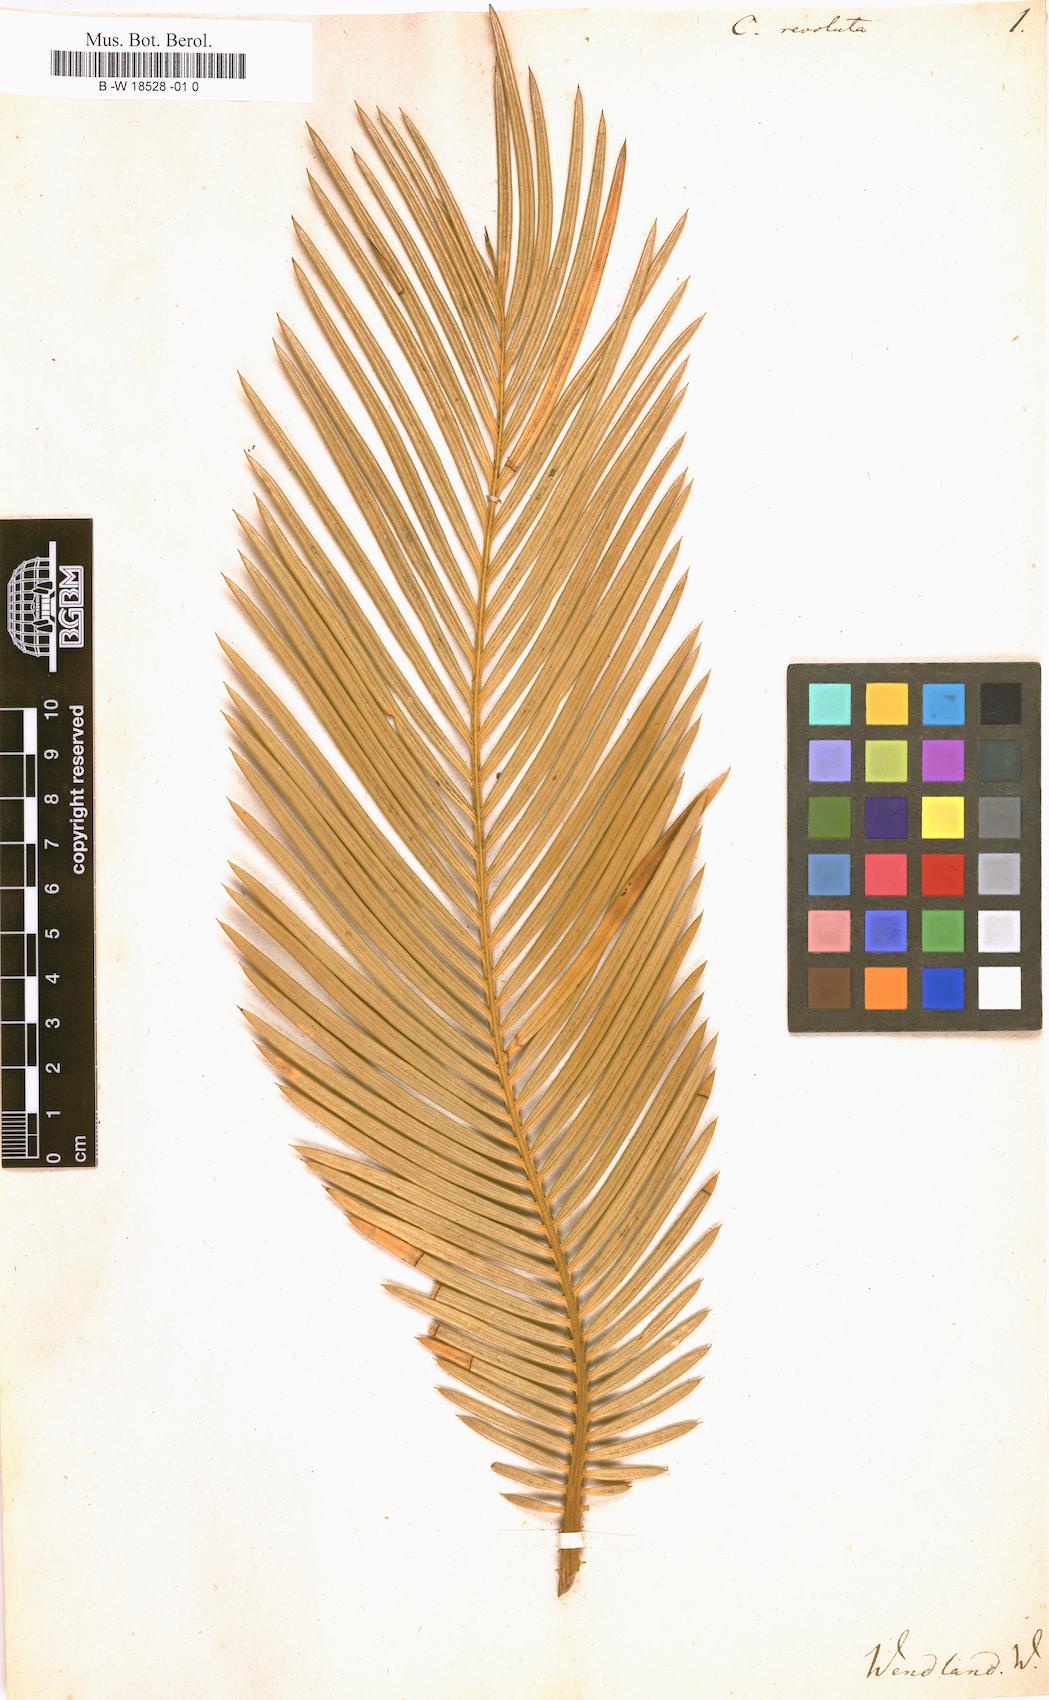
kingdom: Plantae
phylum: Tracheophyta
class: Cycadopsida
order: Cycadales
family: Cycadaceae
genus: Cycas
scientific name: Cycas revoluta
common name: Sago palm
